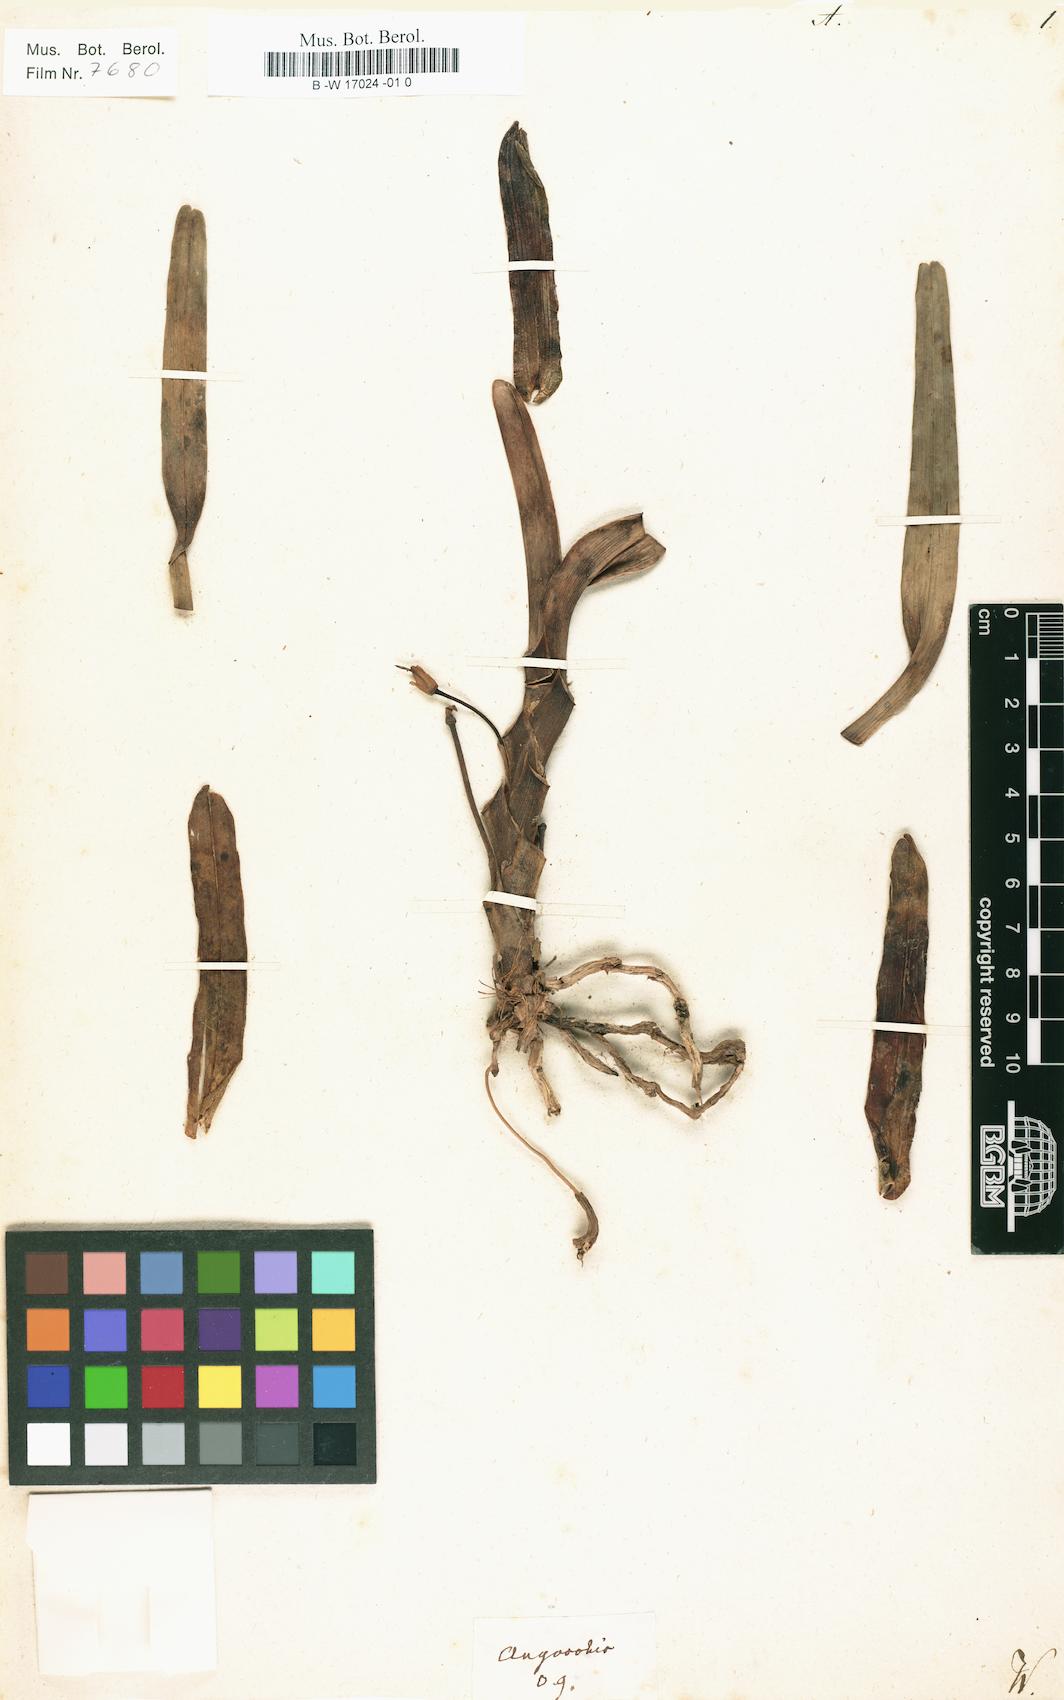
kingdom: Plantae
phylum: Tracheophyta
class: Liliopsida
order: Asparagales
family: Orchidaceae
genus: Angorchis
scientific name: Angorchis
